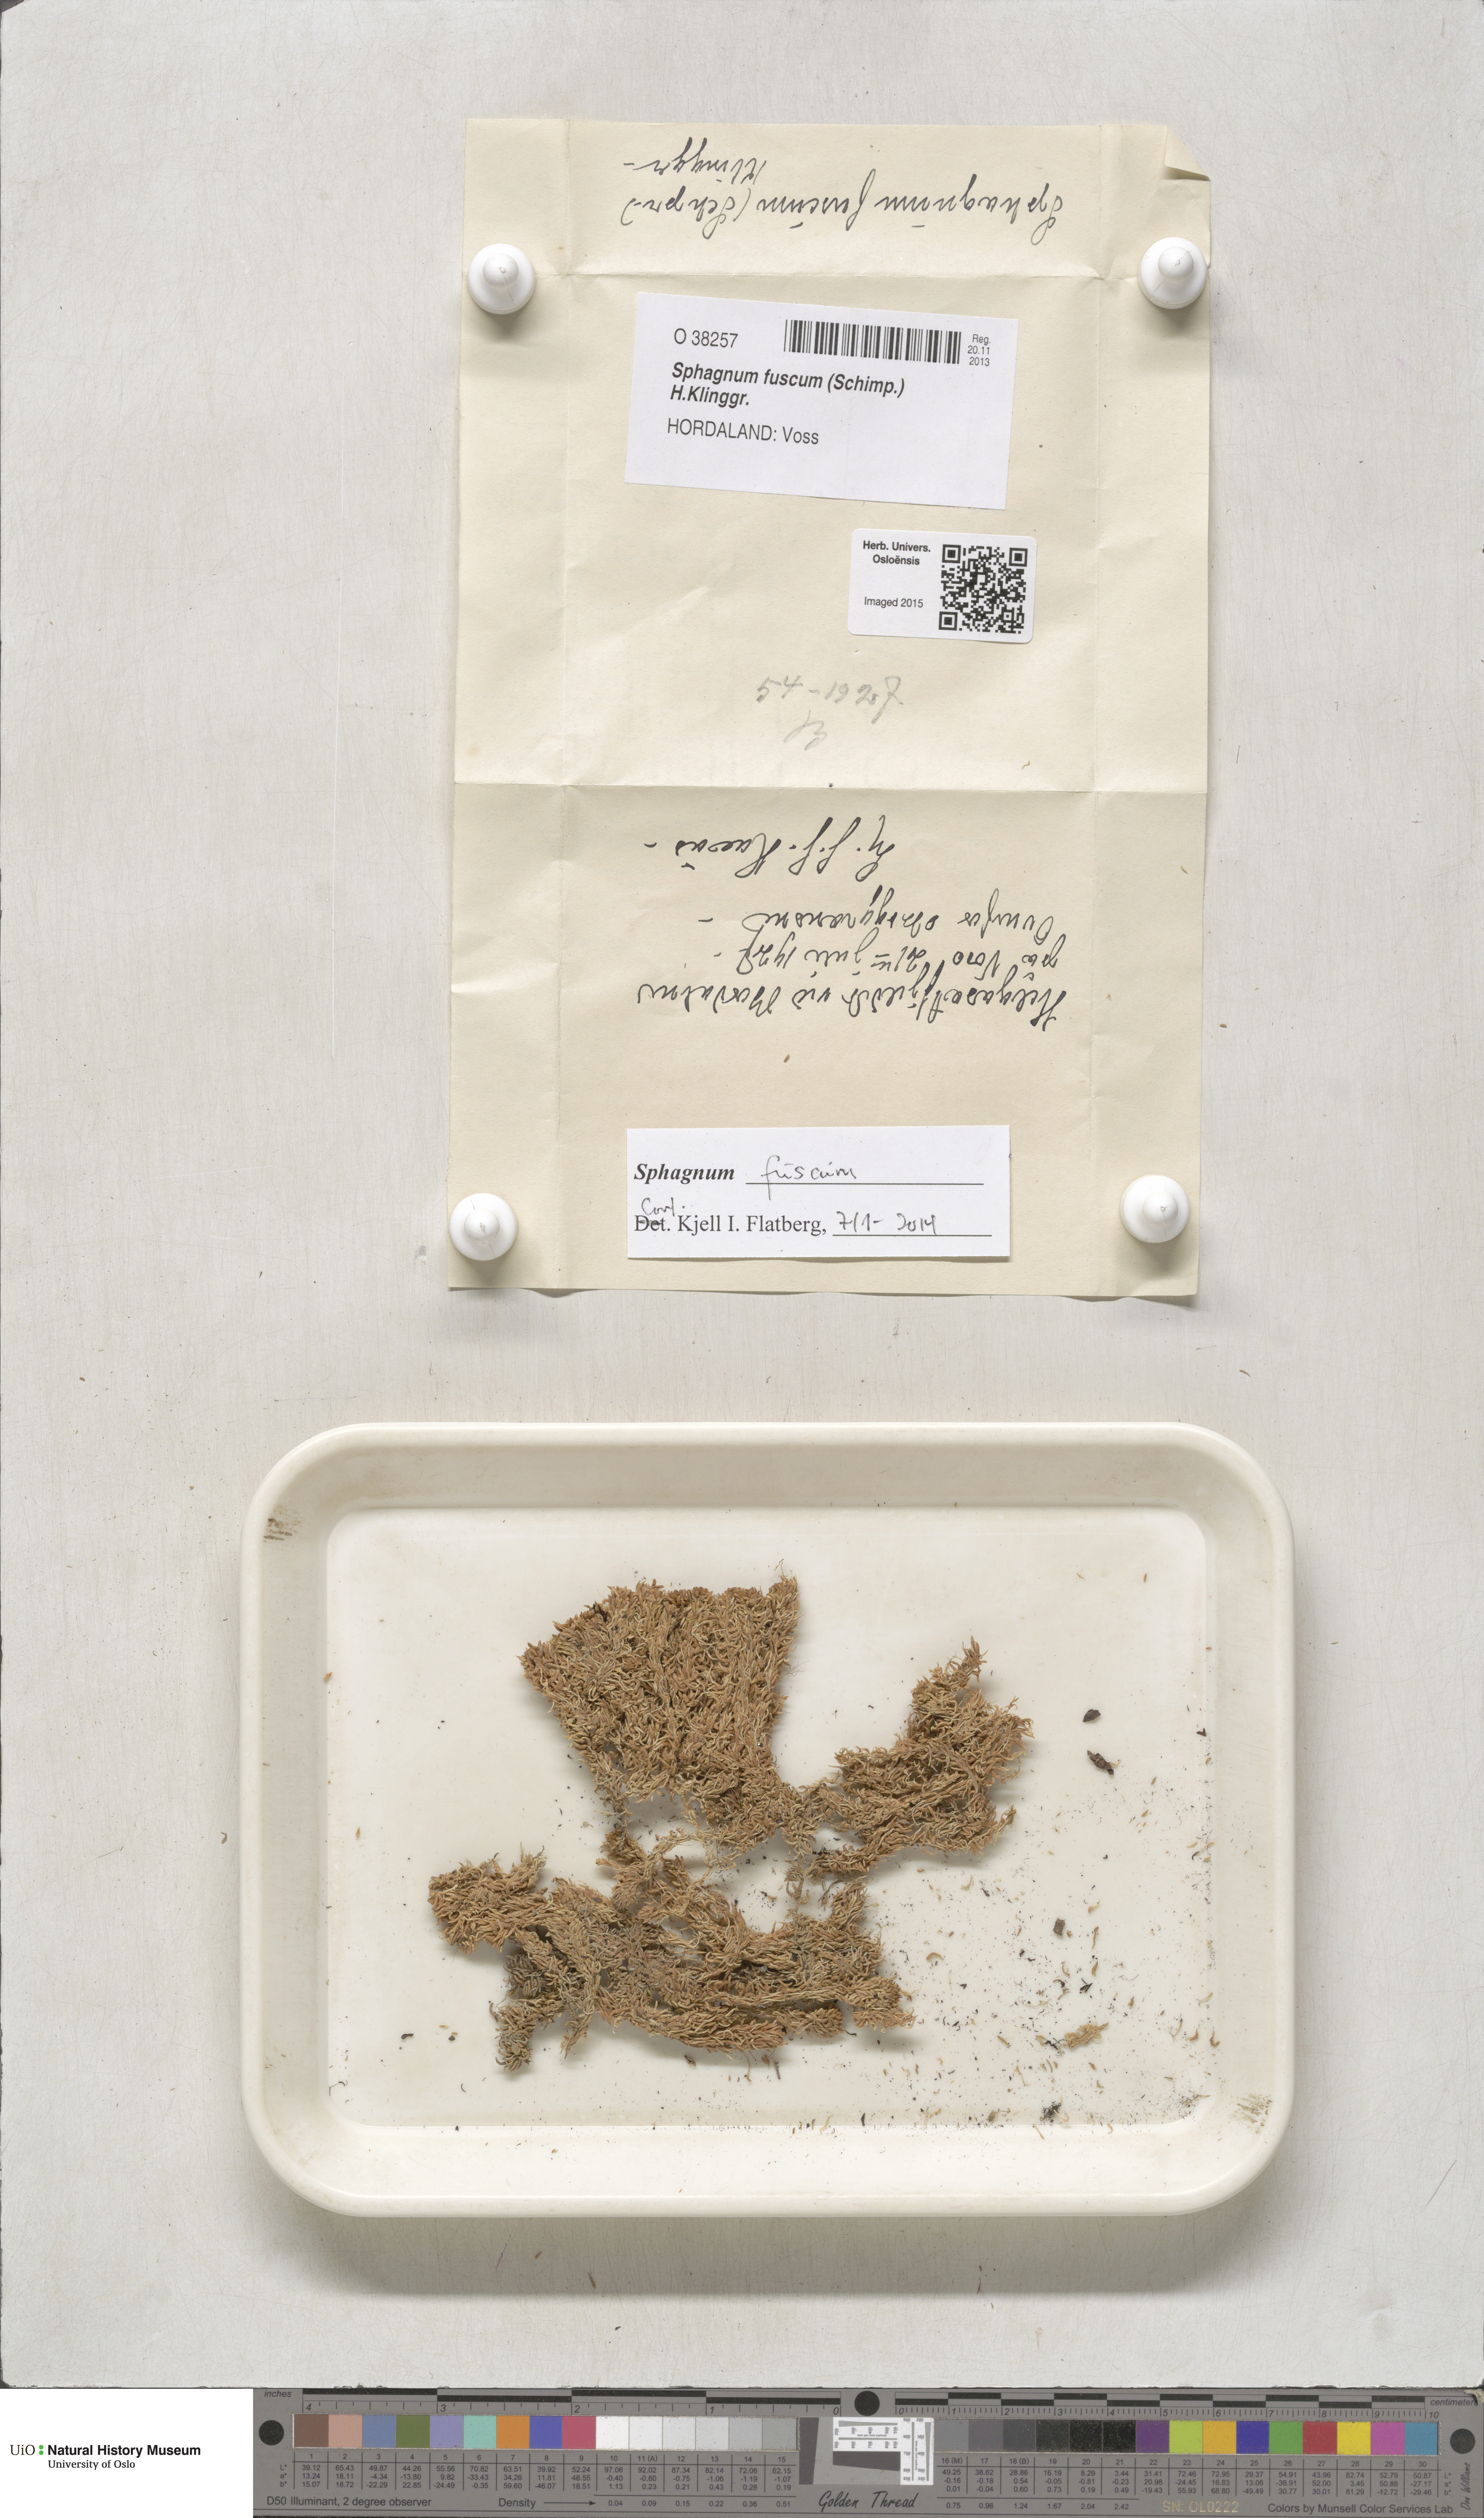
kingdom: Plantae
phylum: Bryophyta
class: Sphagnopsida
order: Sphagnales
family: Sphagnaceae
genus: Sphagnum
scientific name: Sphagnum fuscum
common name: Brown peat moss
